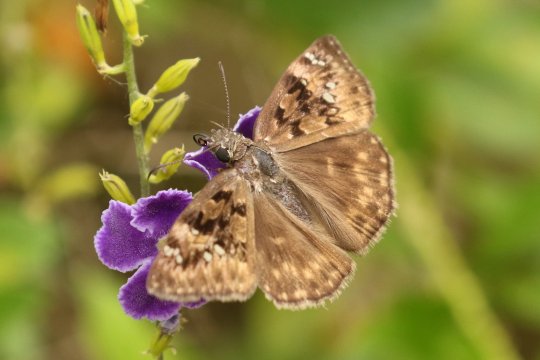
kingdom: Animalia
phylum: Arthropoda
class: Insecta
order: Lepidoptera
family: Hesperiidae
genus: Gesta
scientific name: Gesta
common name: Horace's Duskywing
